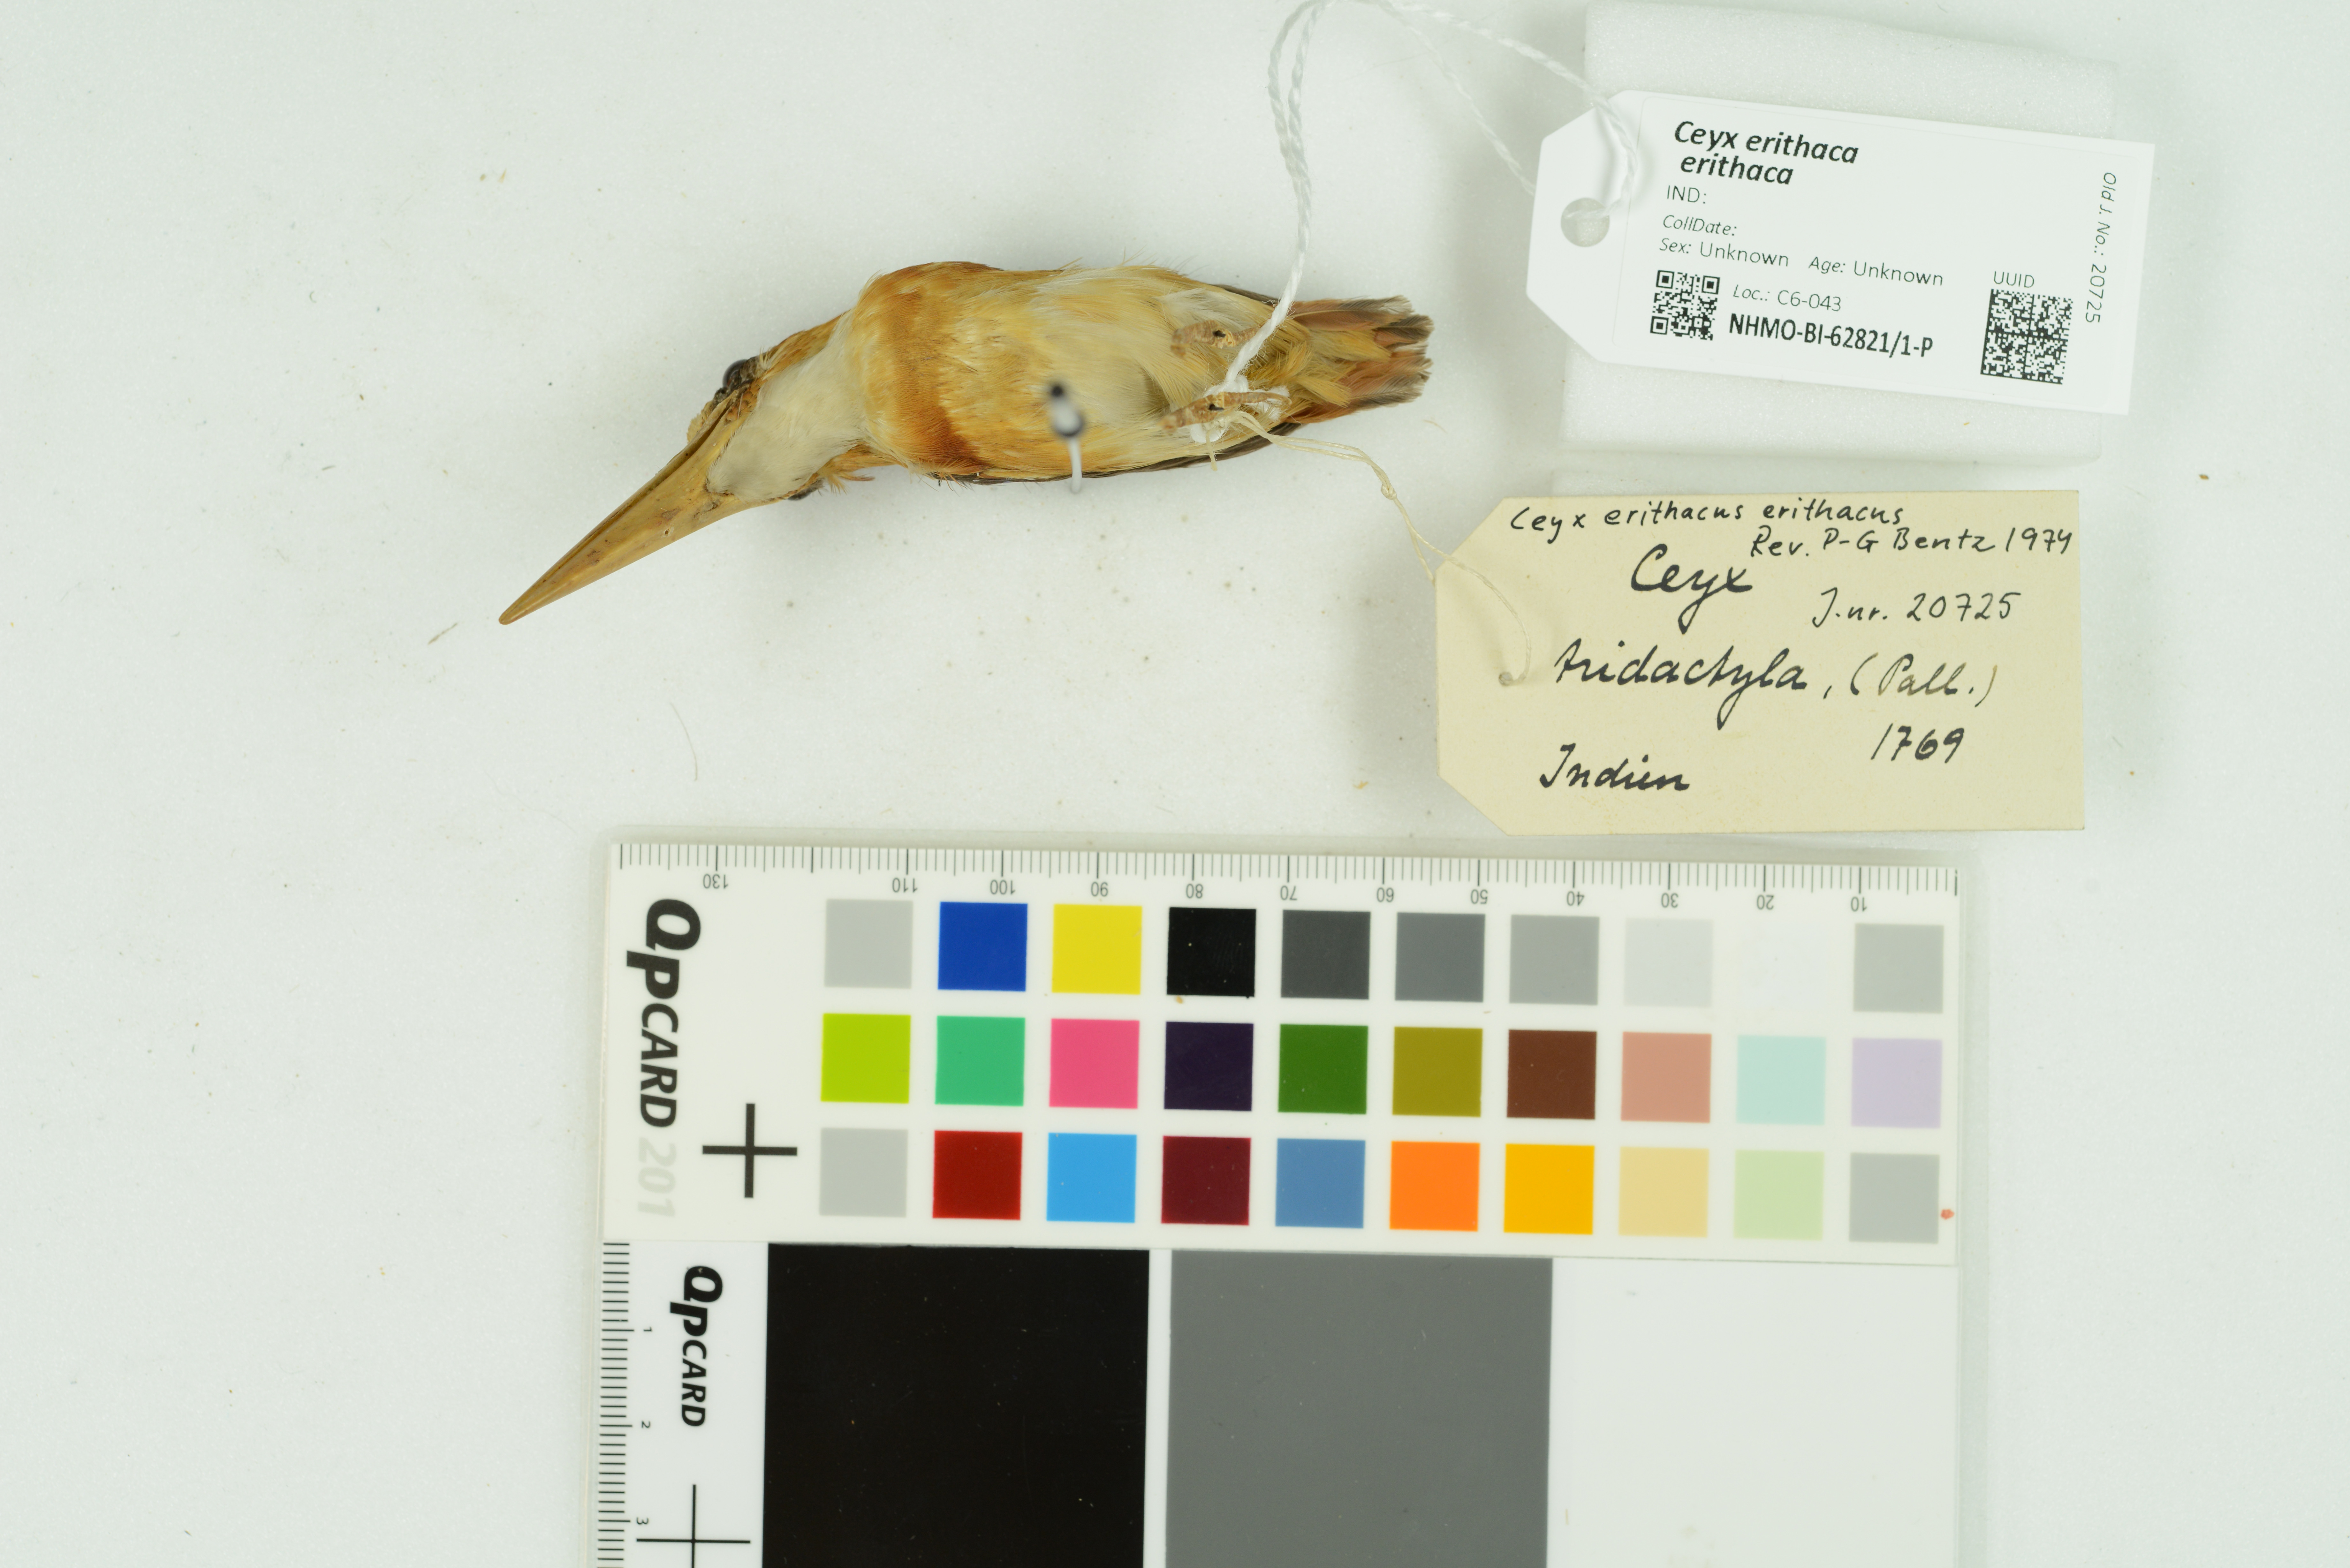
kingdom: Animalia
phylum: Chordata
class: Aves
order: Coraciiformes
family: Alcedinidae
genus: Ceyx
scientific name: Ceyx erithaca
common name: Oriental dwarf kingfisher
